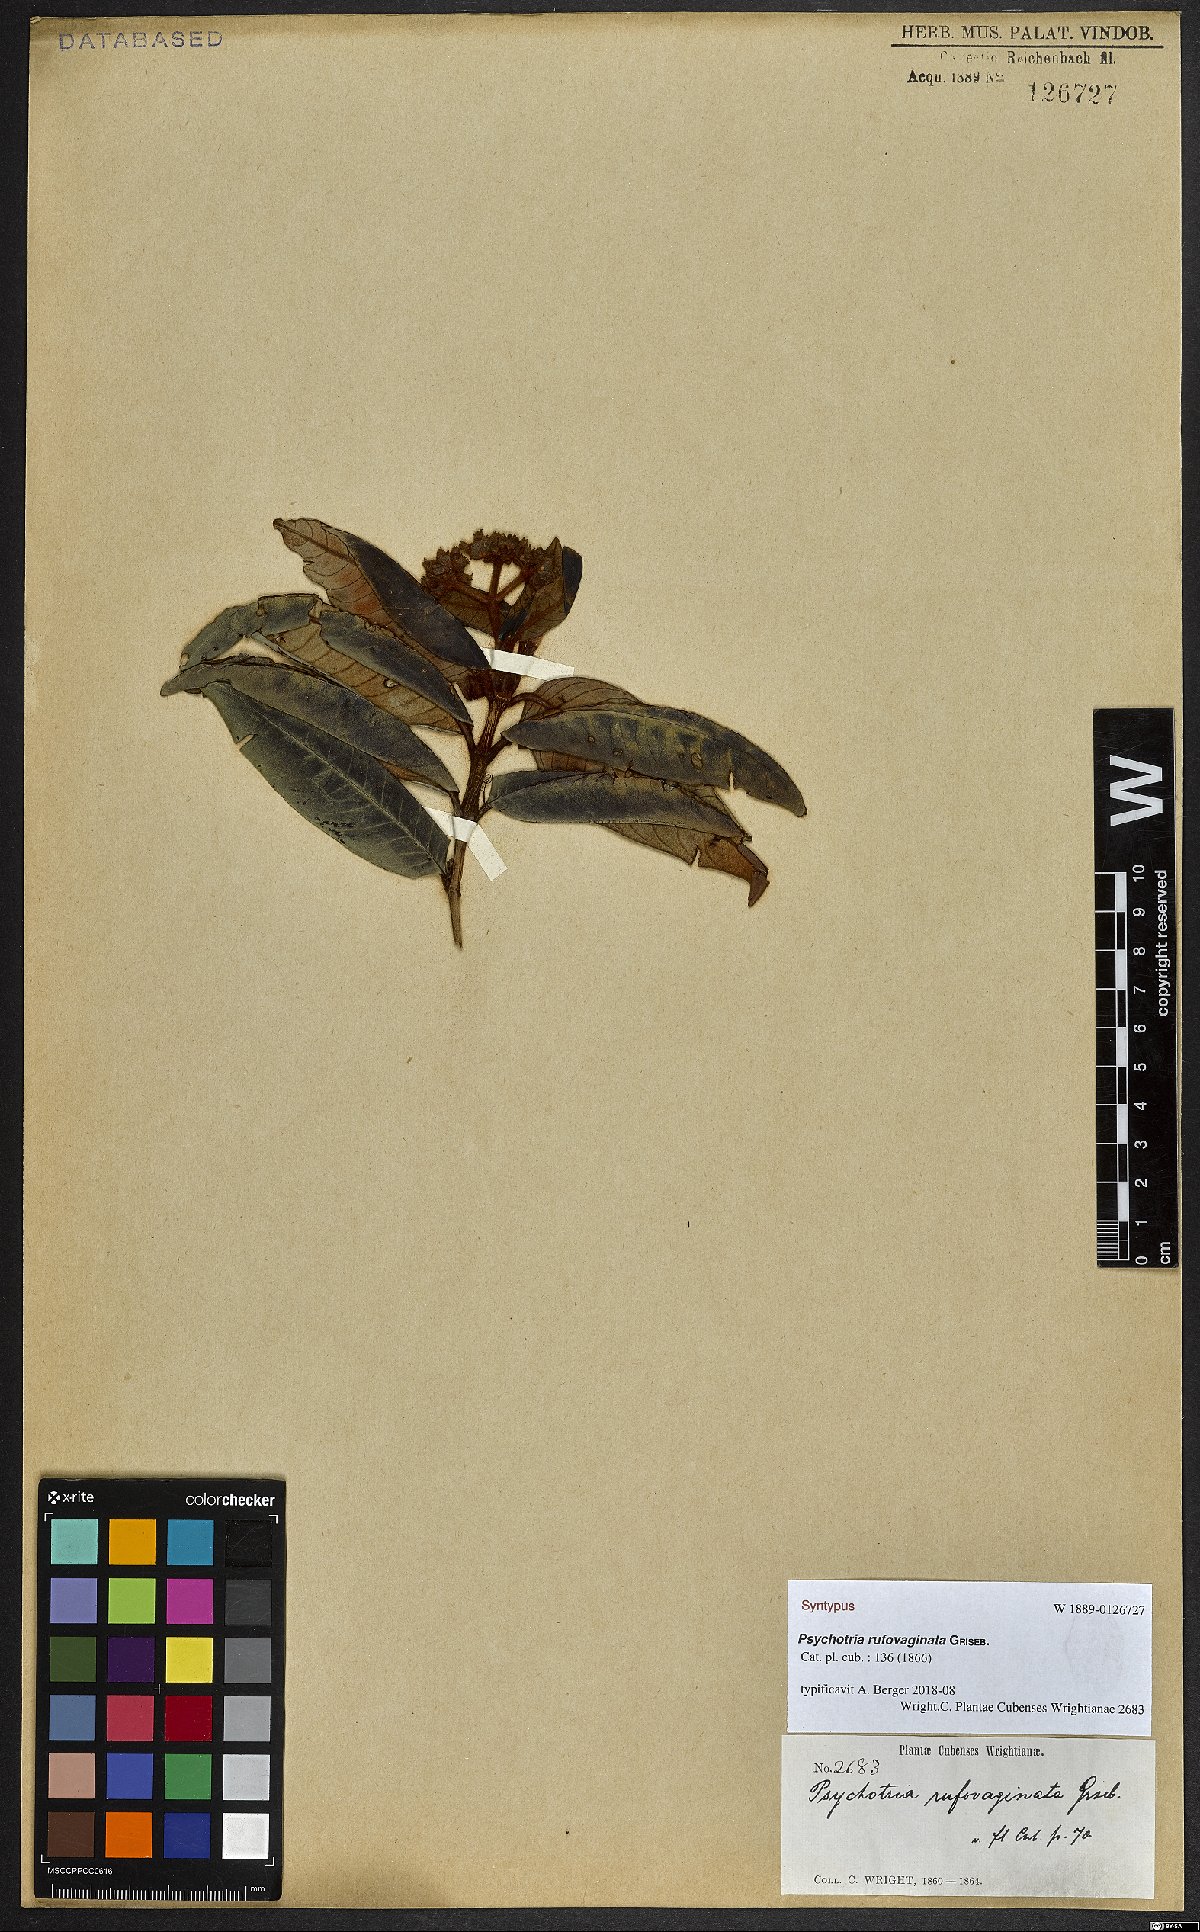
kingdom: Plantae
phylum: Tracheophyta
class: Magnoliopsida
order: Gentianales
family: Rubiaceae
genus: Psychotria
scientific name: Psychotria rufovaginata
